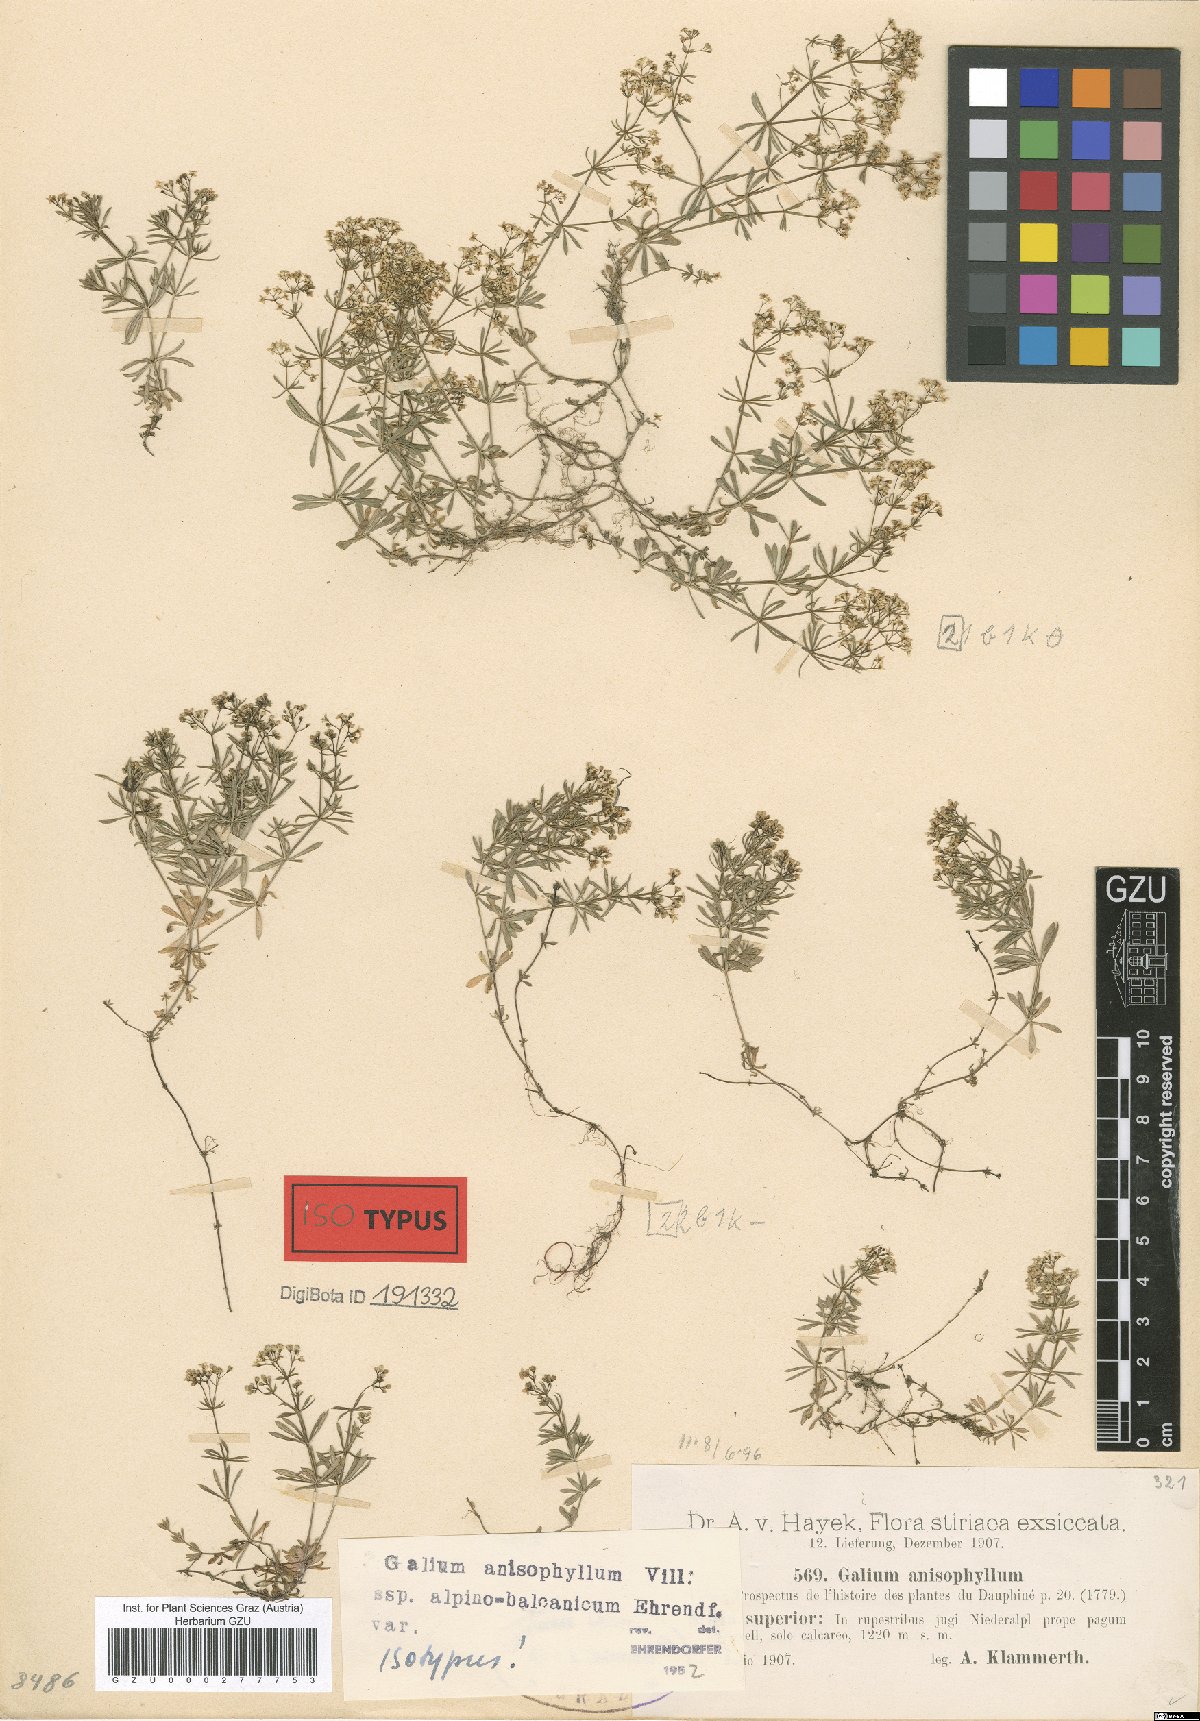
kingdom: Plantae
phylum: Tracheophyta
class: Magnoliopsida
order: Gentianales
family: Rubiaceae
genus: Galium
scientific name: Galium anisophyllon
